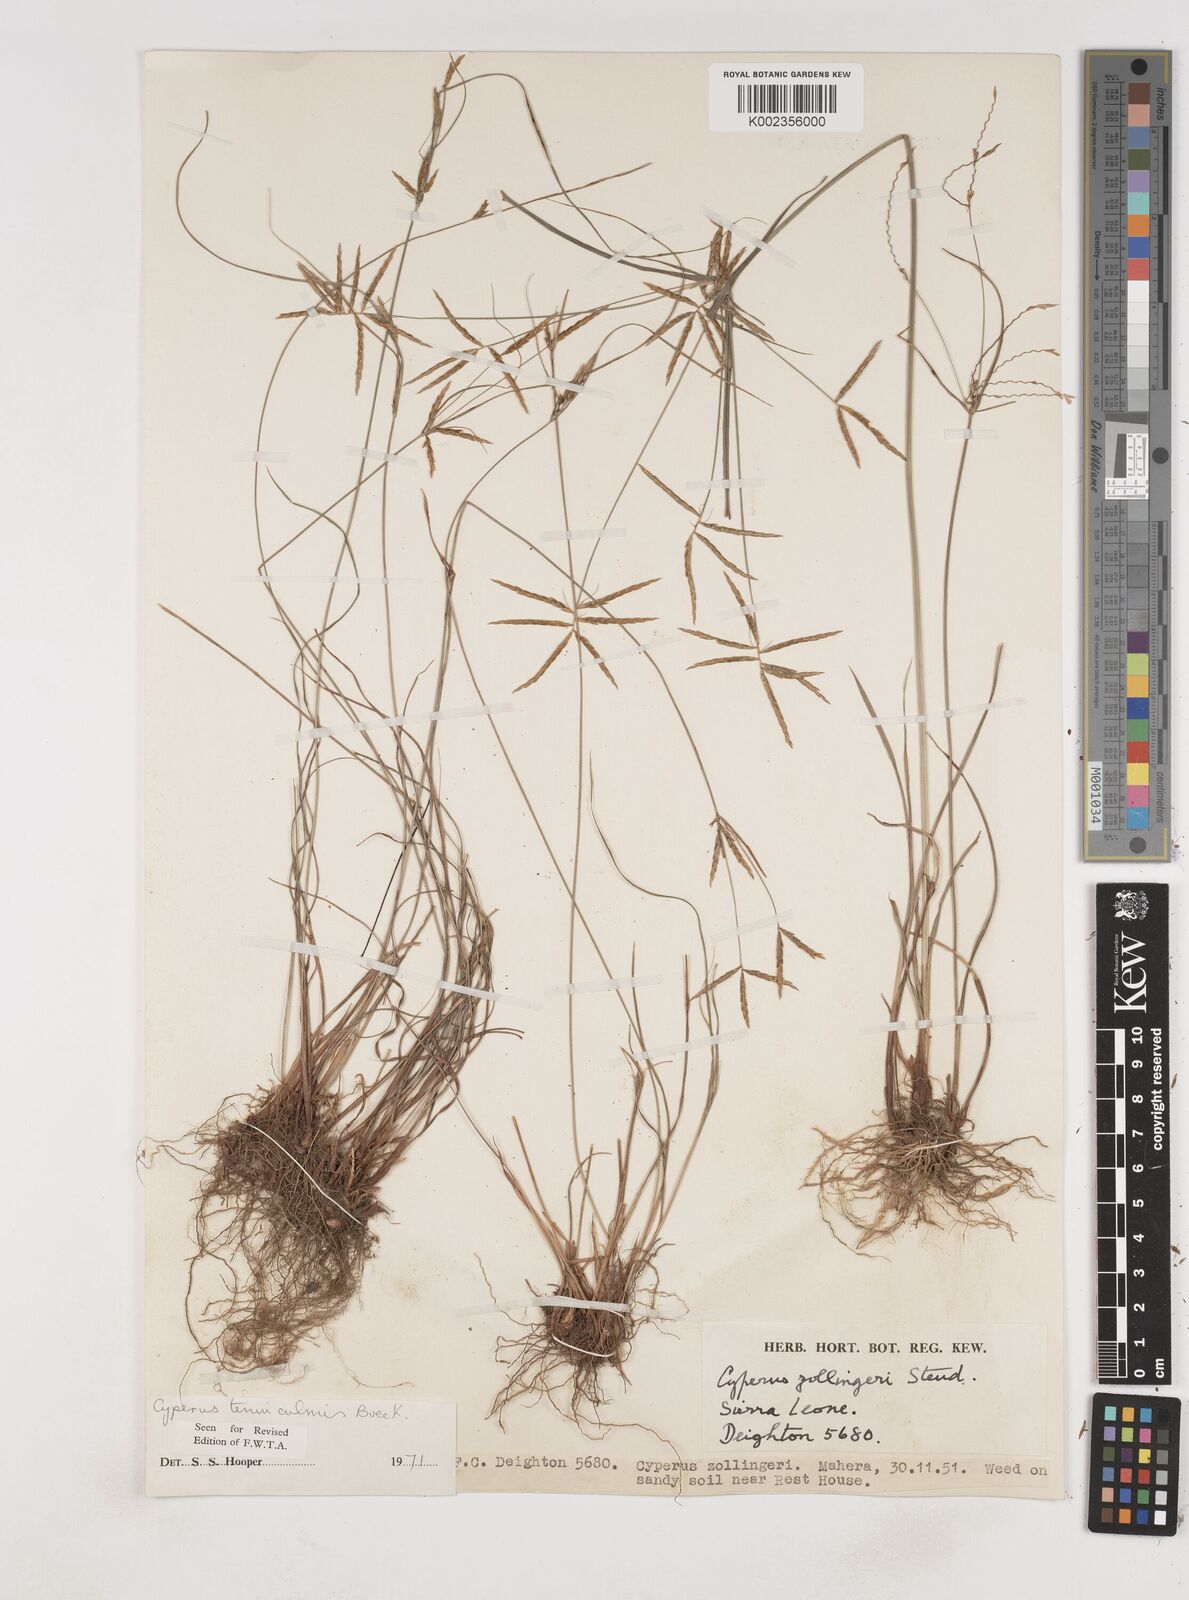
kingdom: Plantae
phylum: Tracheophyta
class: Liliopsida
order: Poales
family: Cyperaceae
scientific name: Cyperaceae
